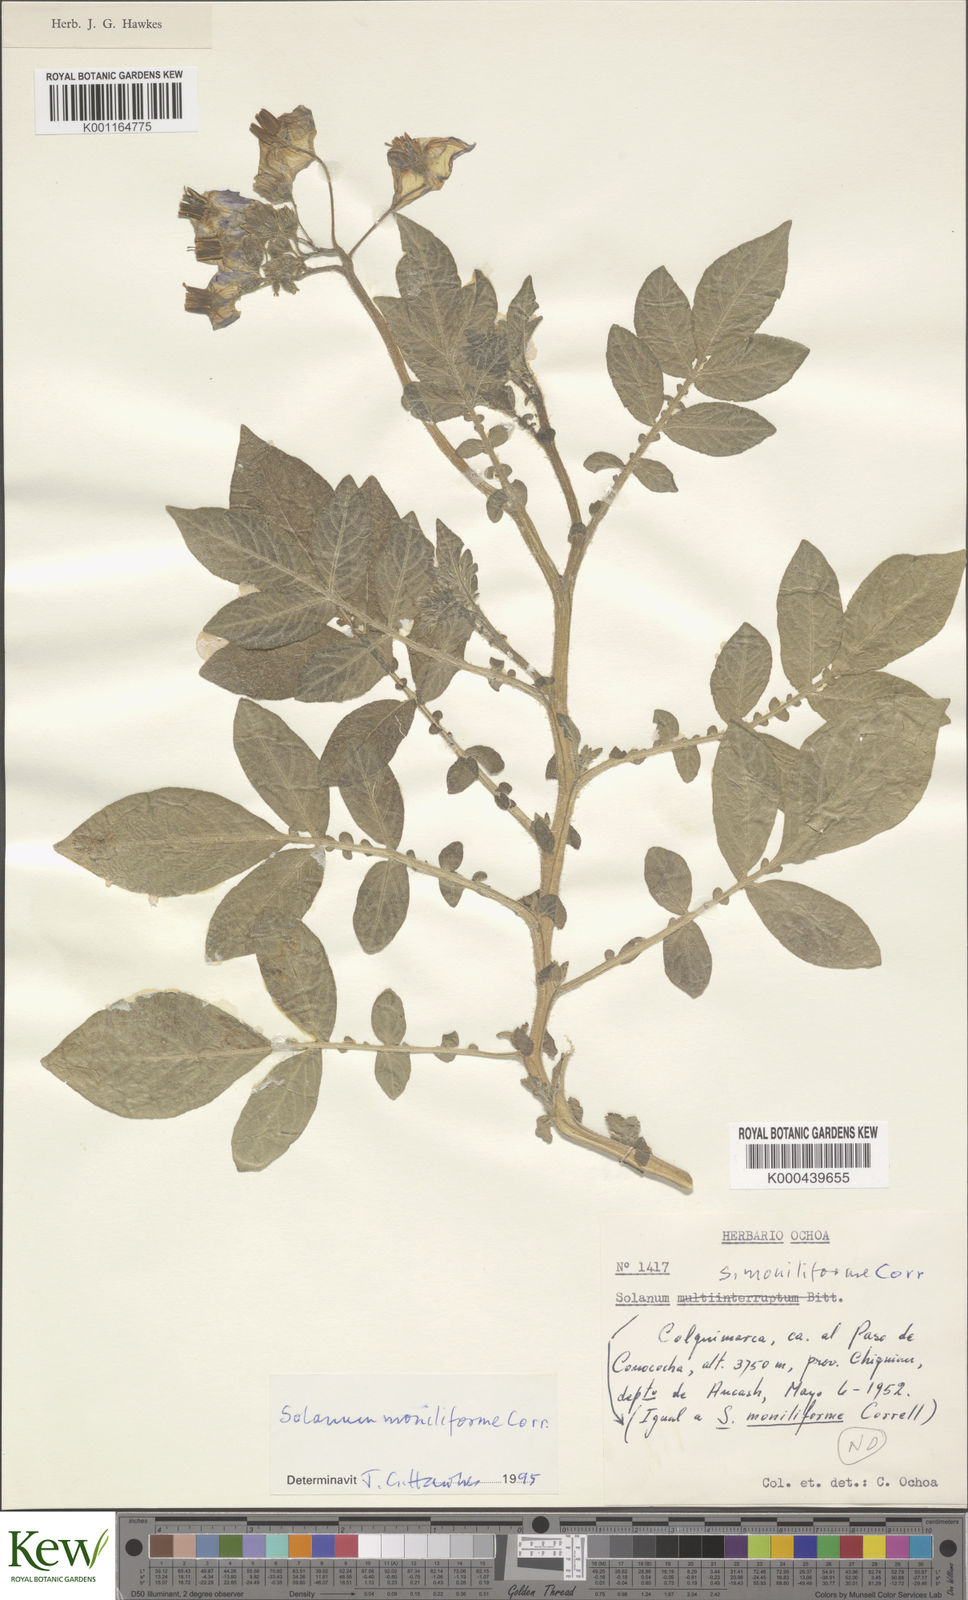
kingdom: Plantae
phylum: Tracheophyta
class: Magnoliopsida
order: Solanales
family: Solanaceae
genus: Solanum
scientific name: Solanum multiinterruptum
